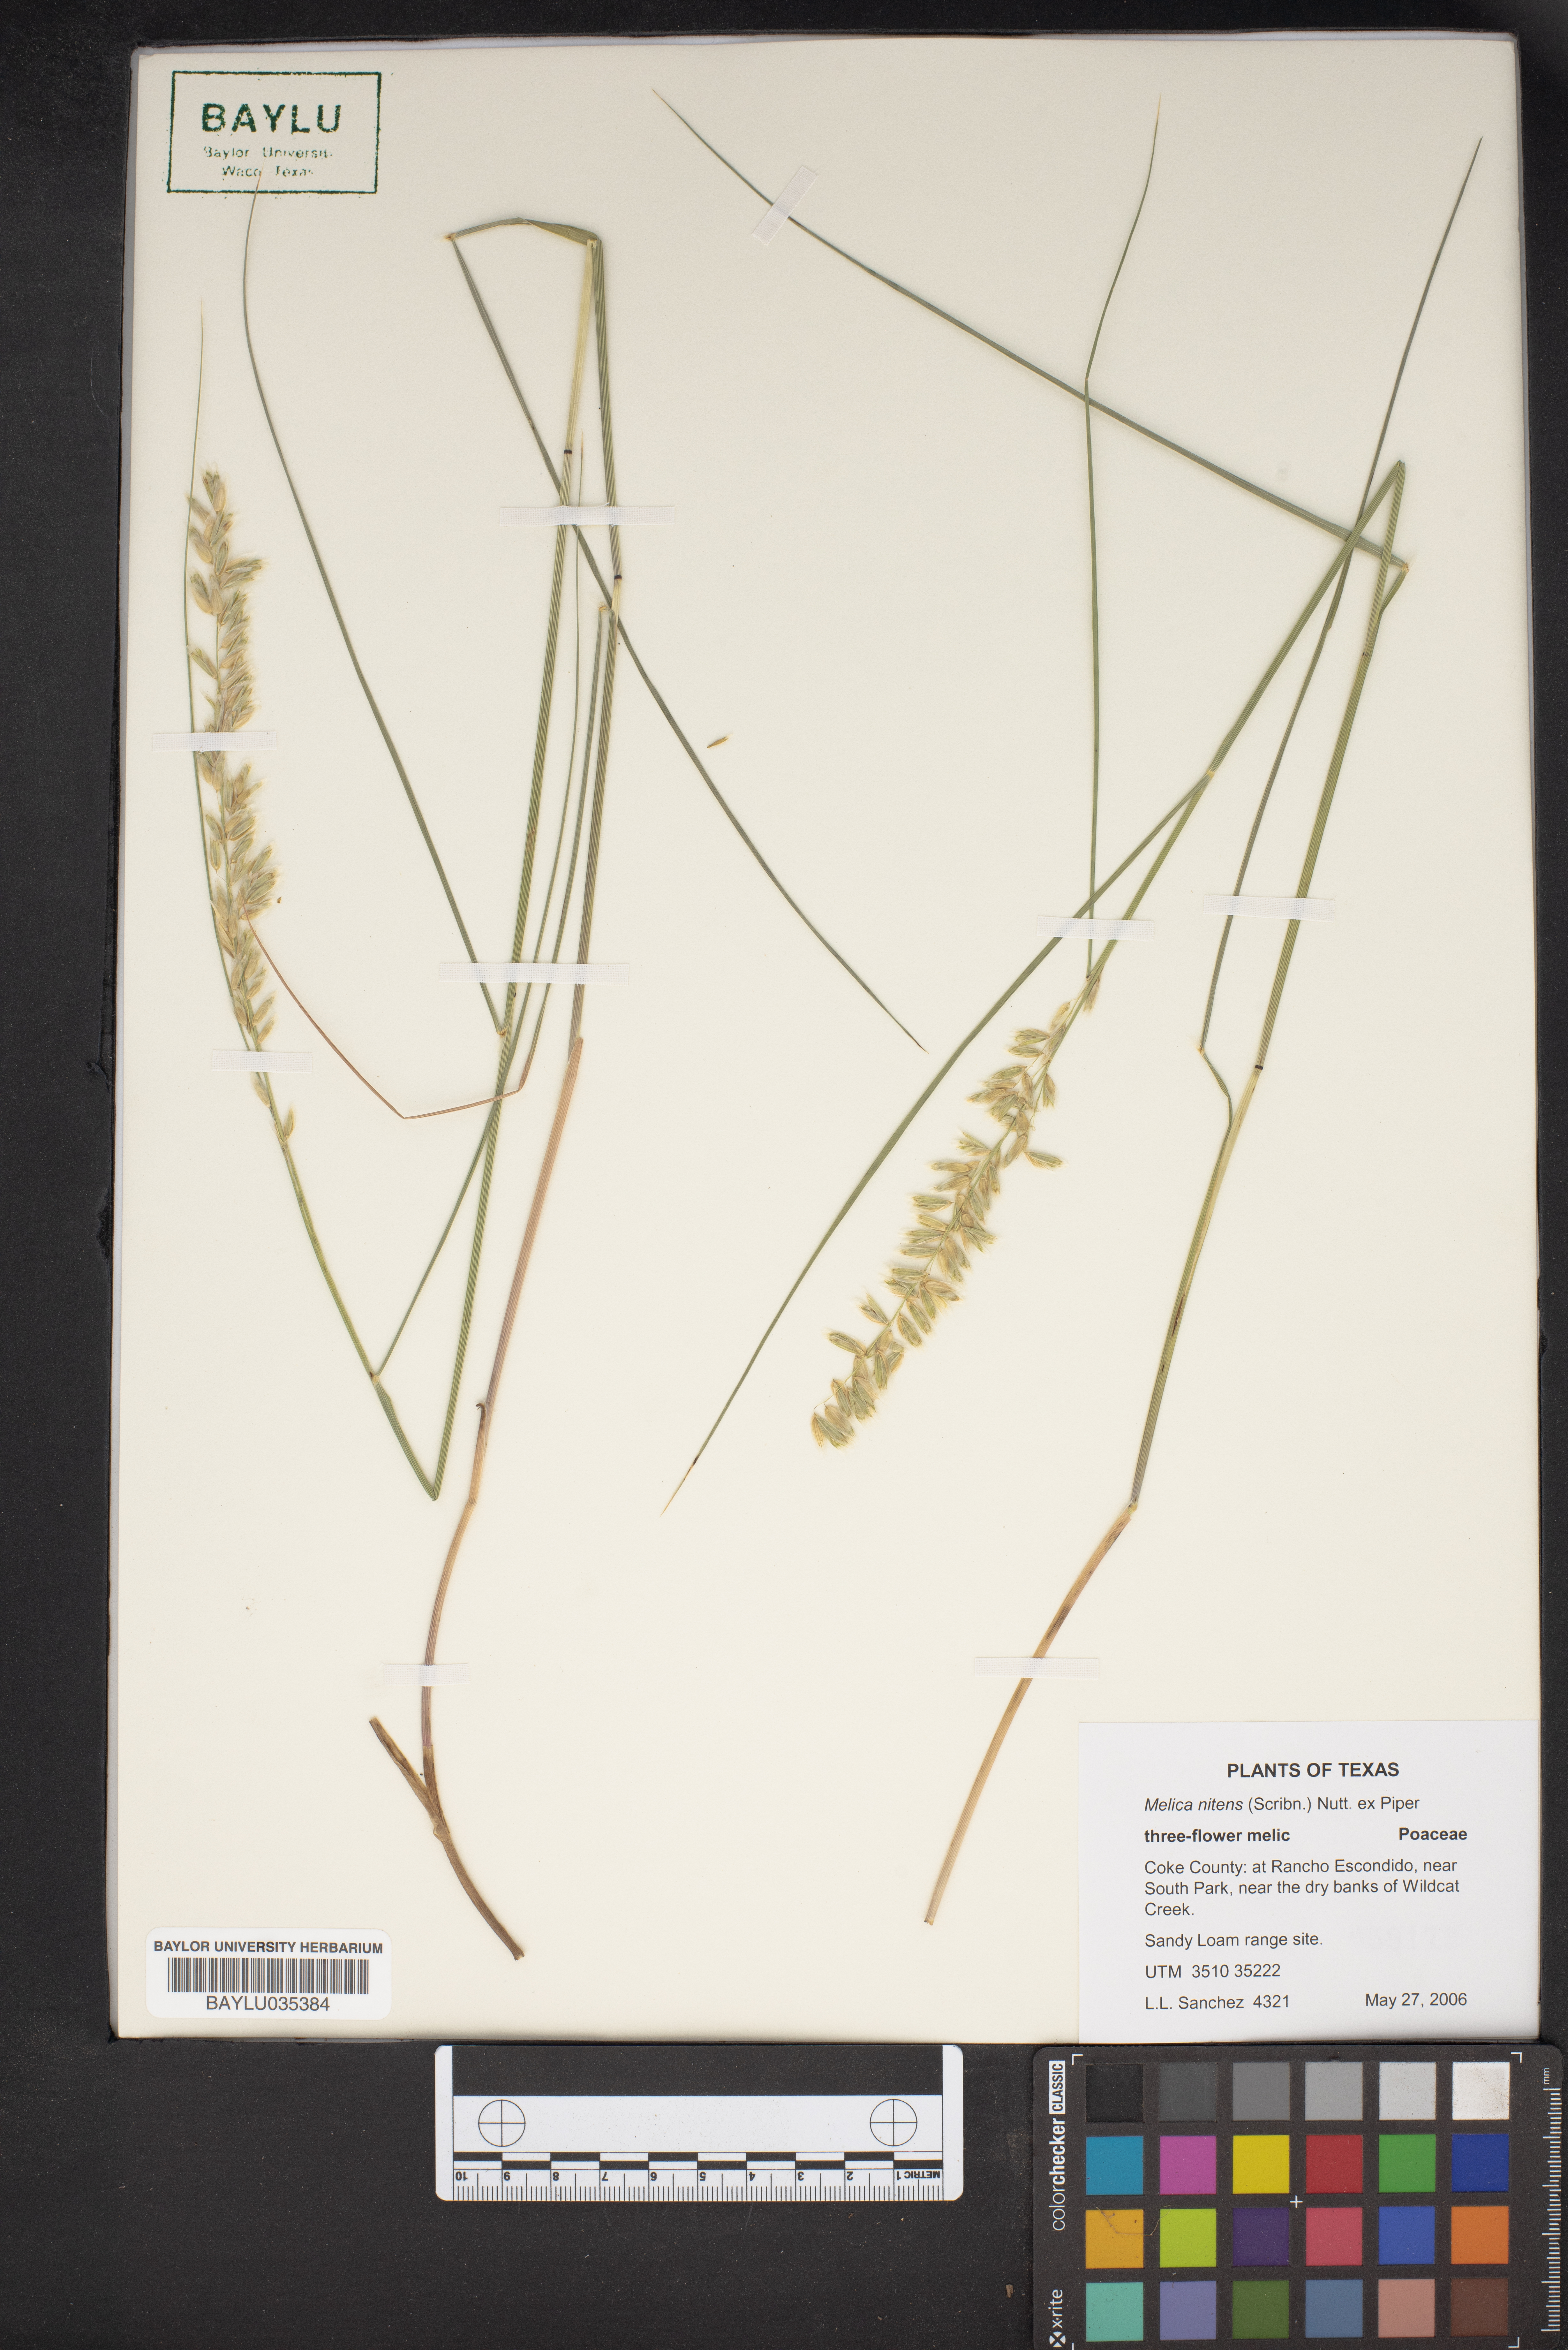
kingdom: Plantae
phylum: Tracheophyta
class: Liliopsida
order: Poales
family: Poaceae
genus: Melica
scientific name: Melica nitens
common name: Three-flower melic
